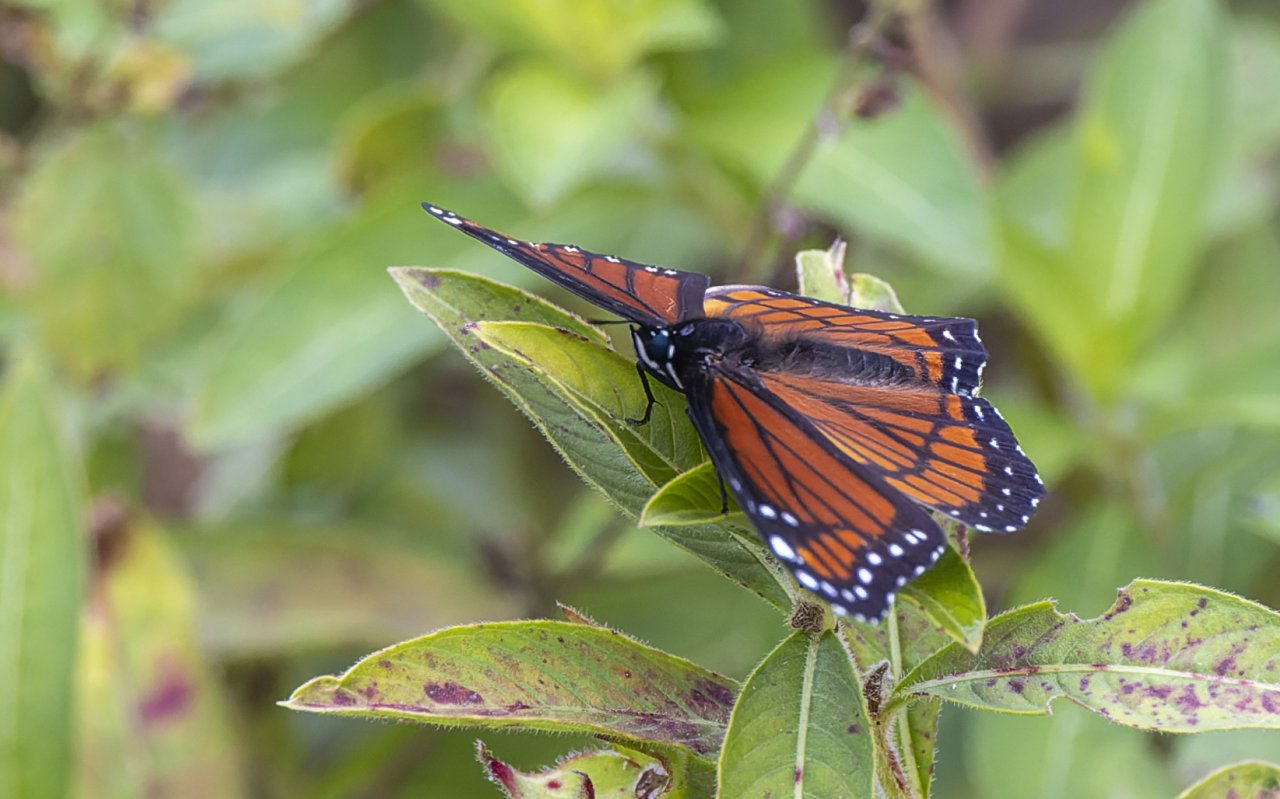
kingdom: Animalia
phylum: Arthropoda
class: Insecta
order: Lepidoptera
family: Nymphalidae
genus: Limenitis
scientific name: Limenitis archippus
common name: Viceroy
